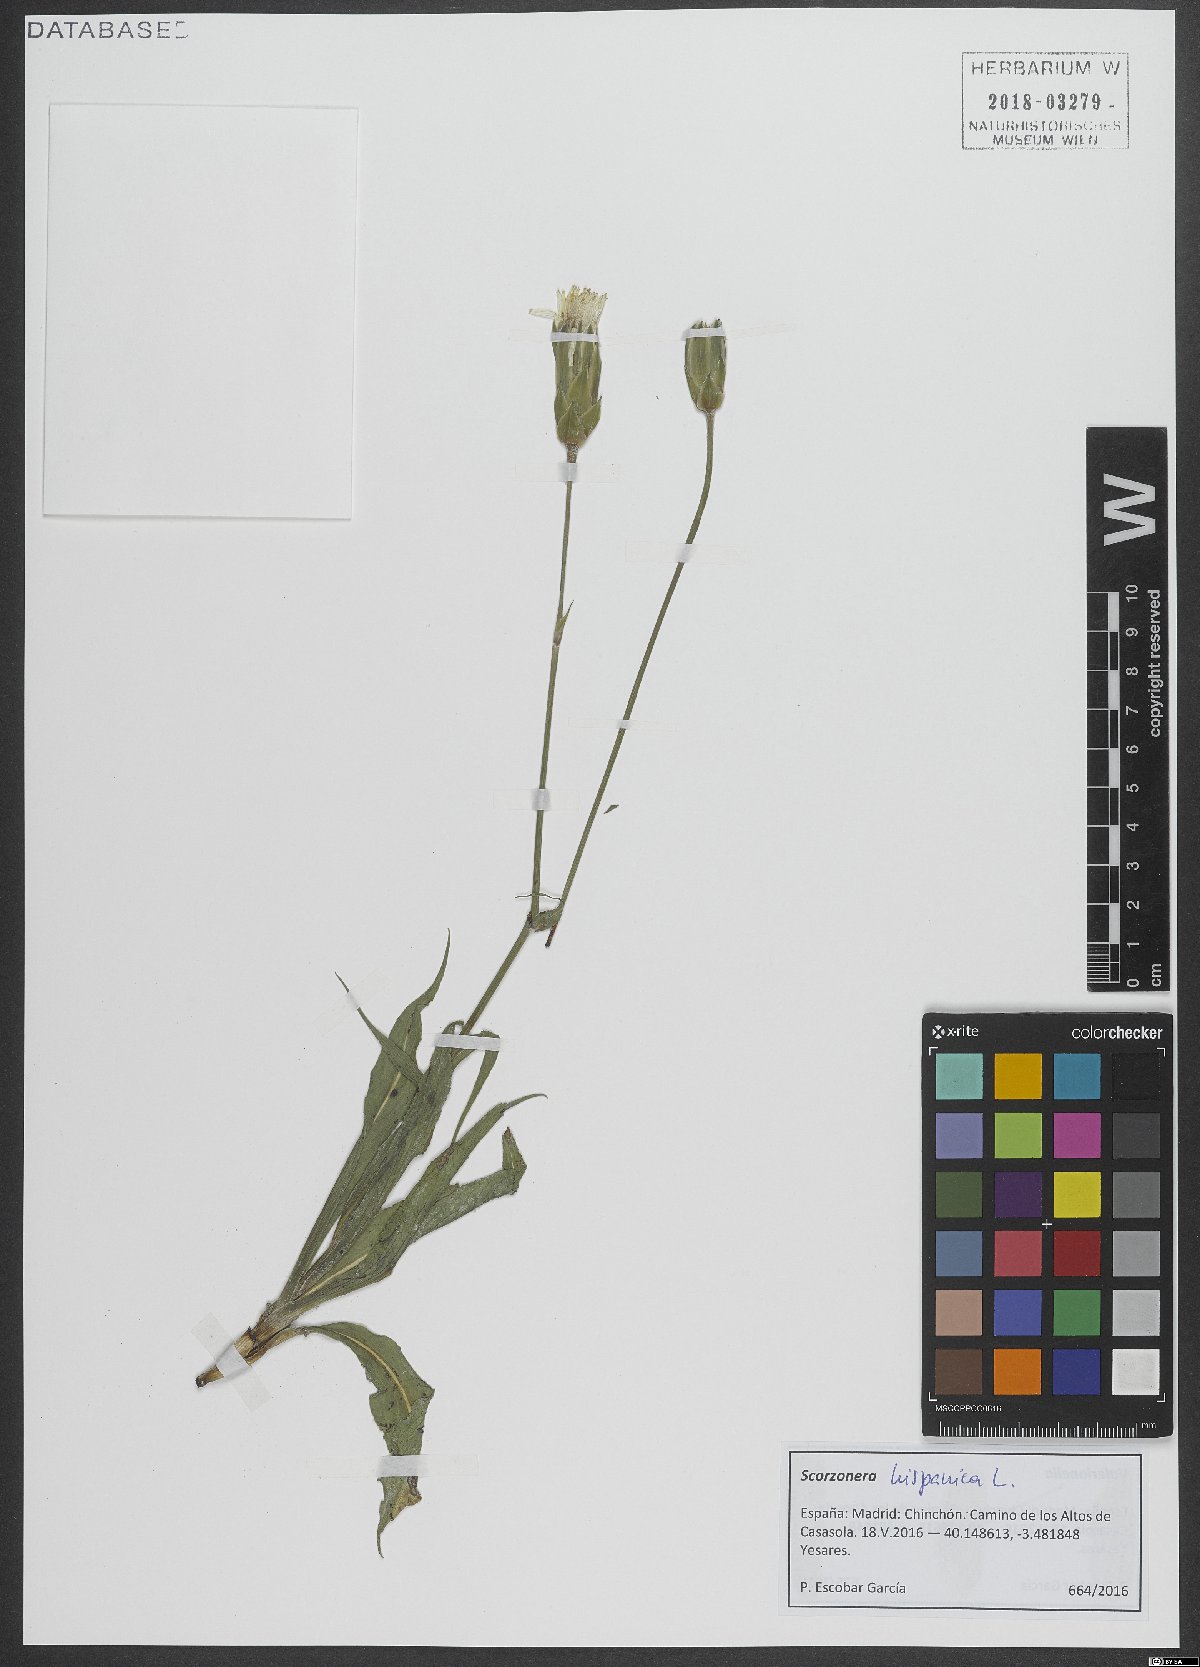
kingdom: Plantae
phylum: Tracheophyta
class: Magnoliopsida
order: Asterales
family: Asteraceae
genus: Pseudopodospermum
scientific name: Pseudopodospermum hispanicum
